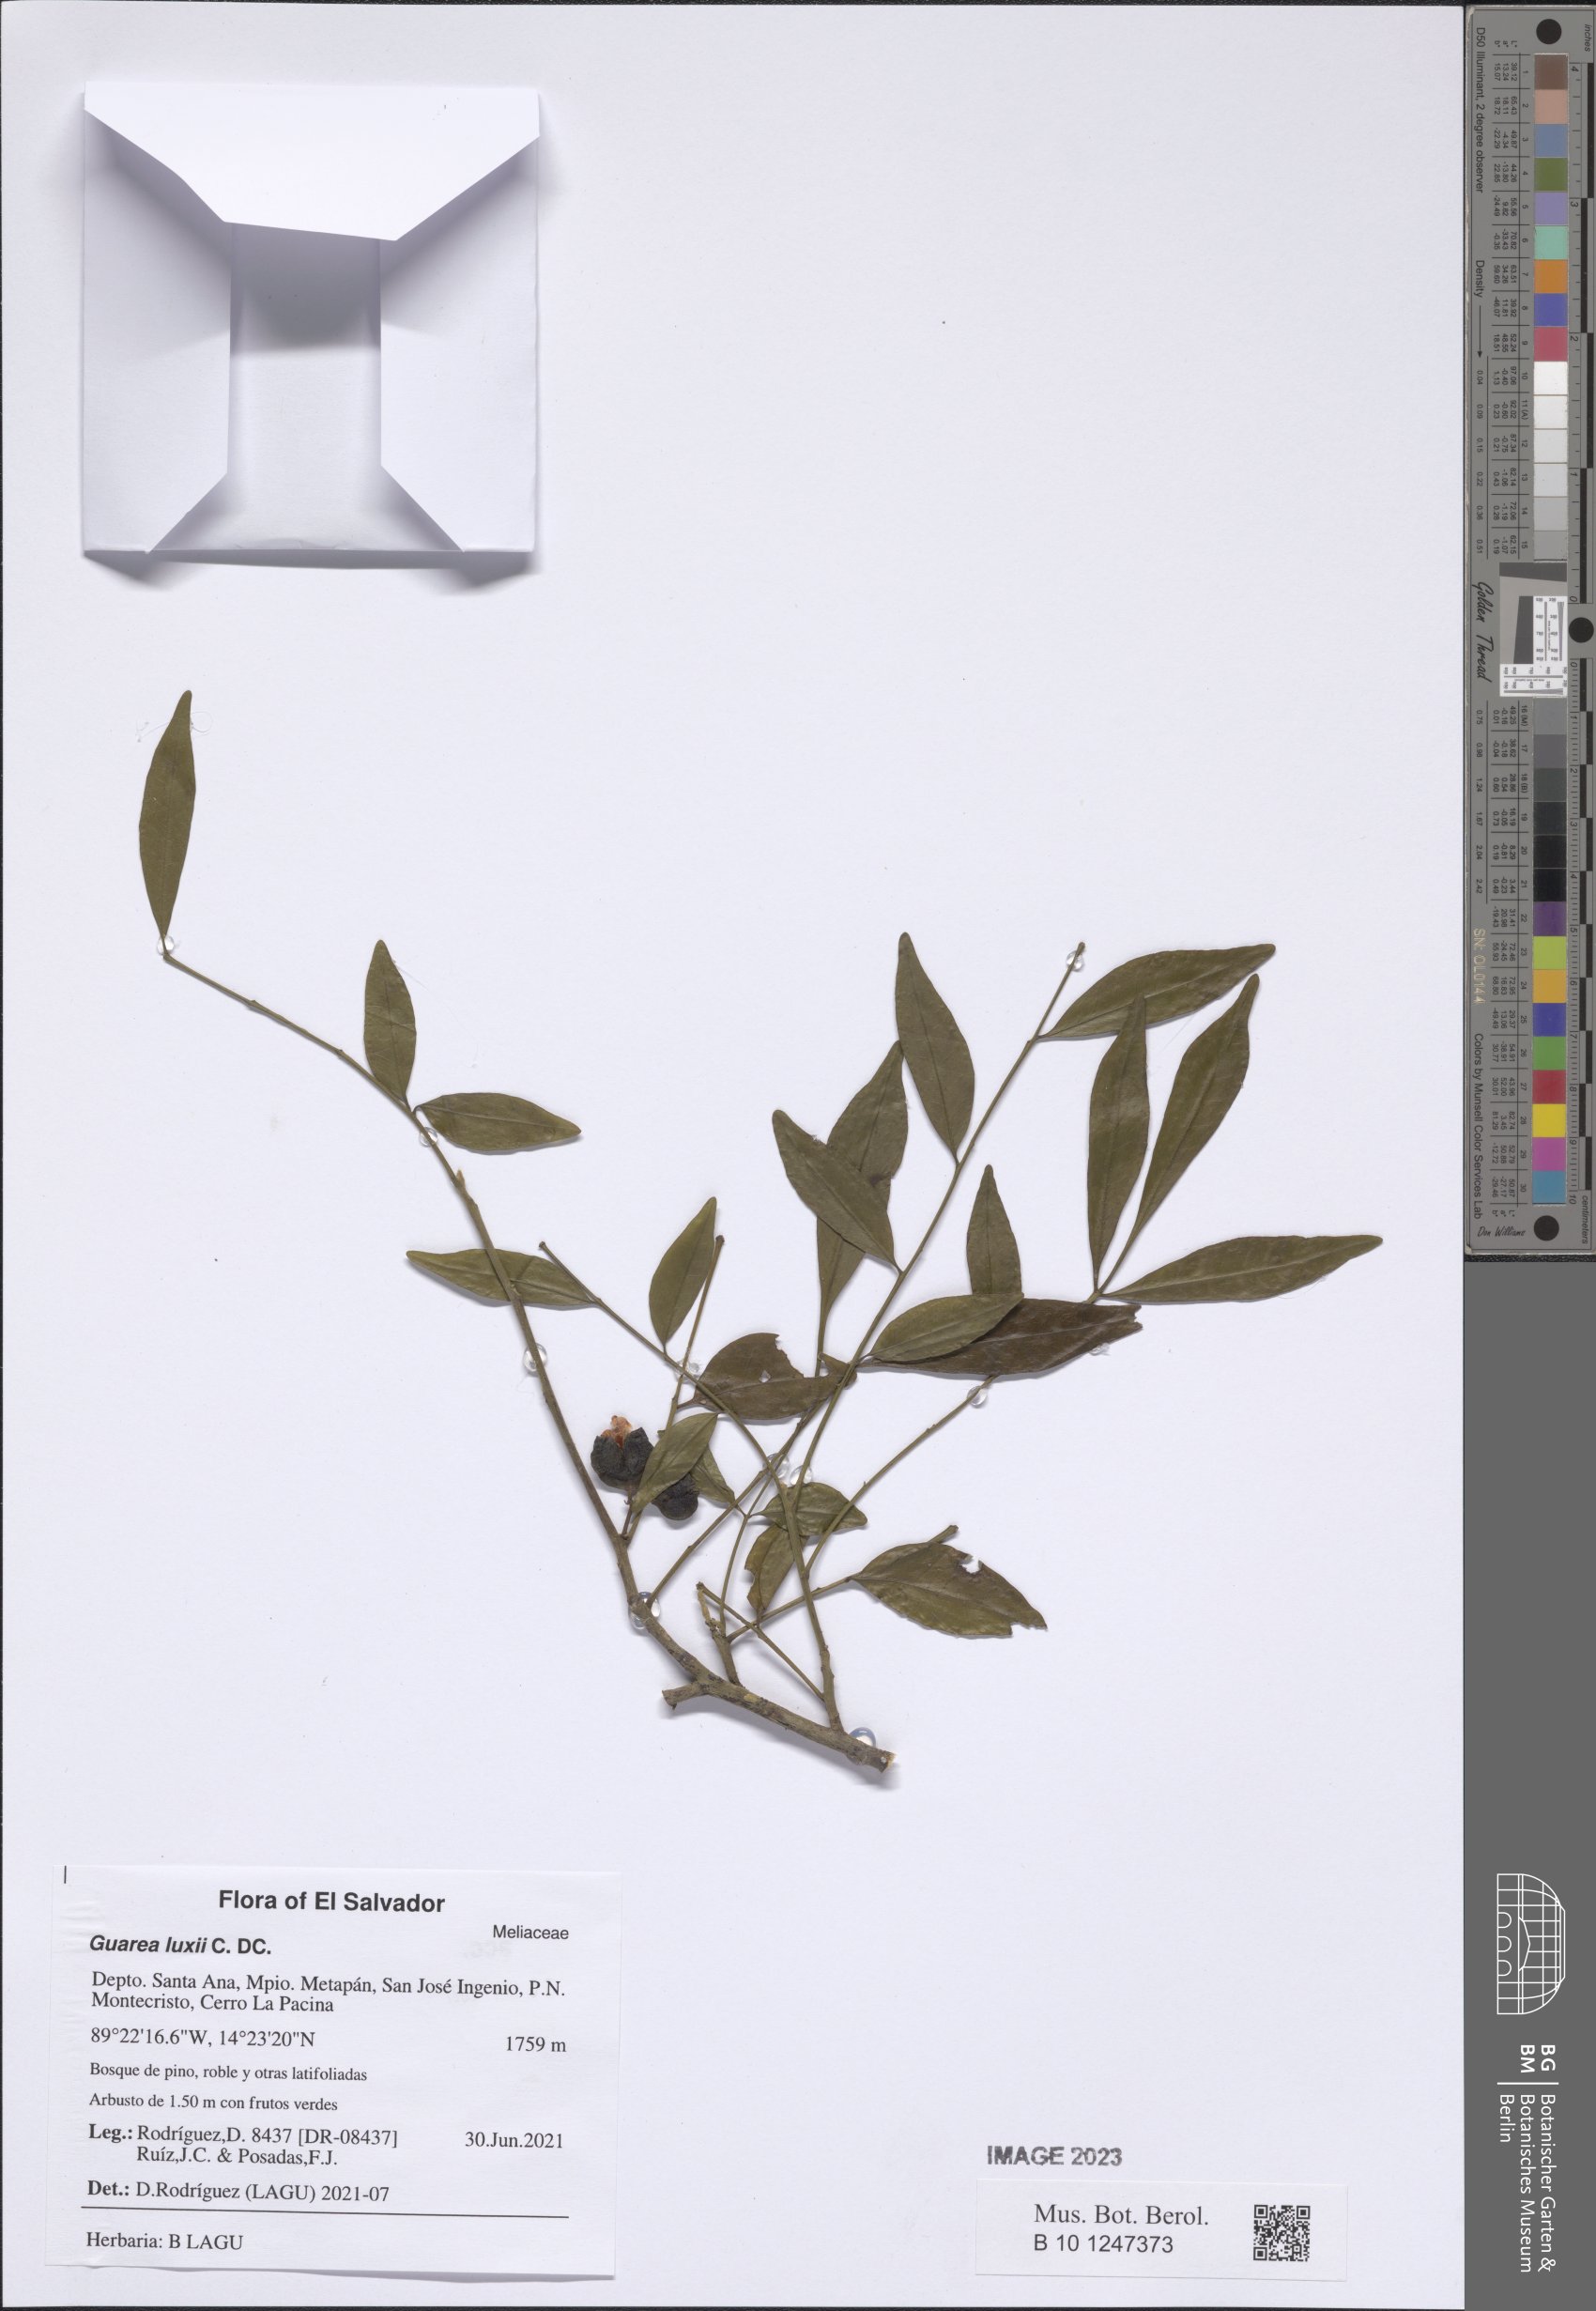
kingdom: Plantae
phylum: Tracheophyta
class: Magnoliopsida
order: Sapindales
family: Meliaceae
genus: Guarea
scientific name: Guarea luxii
